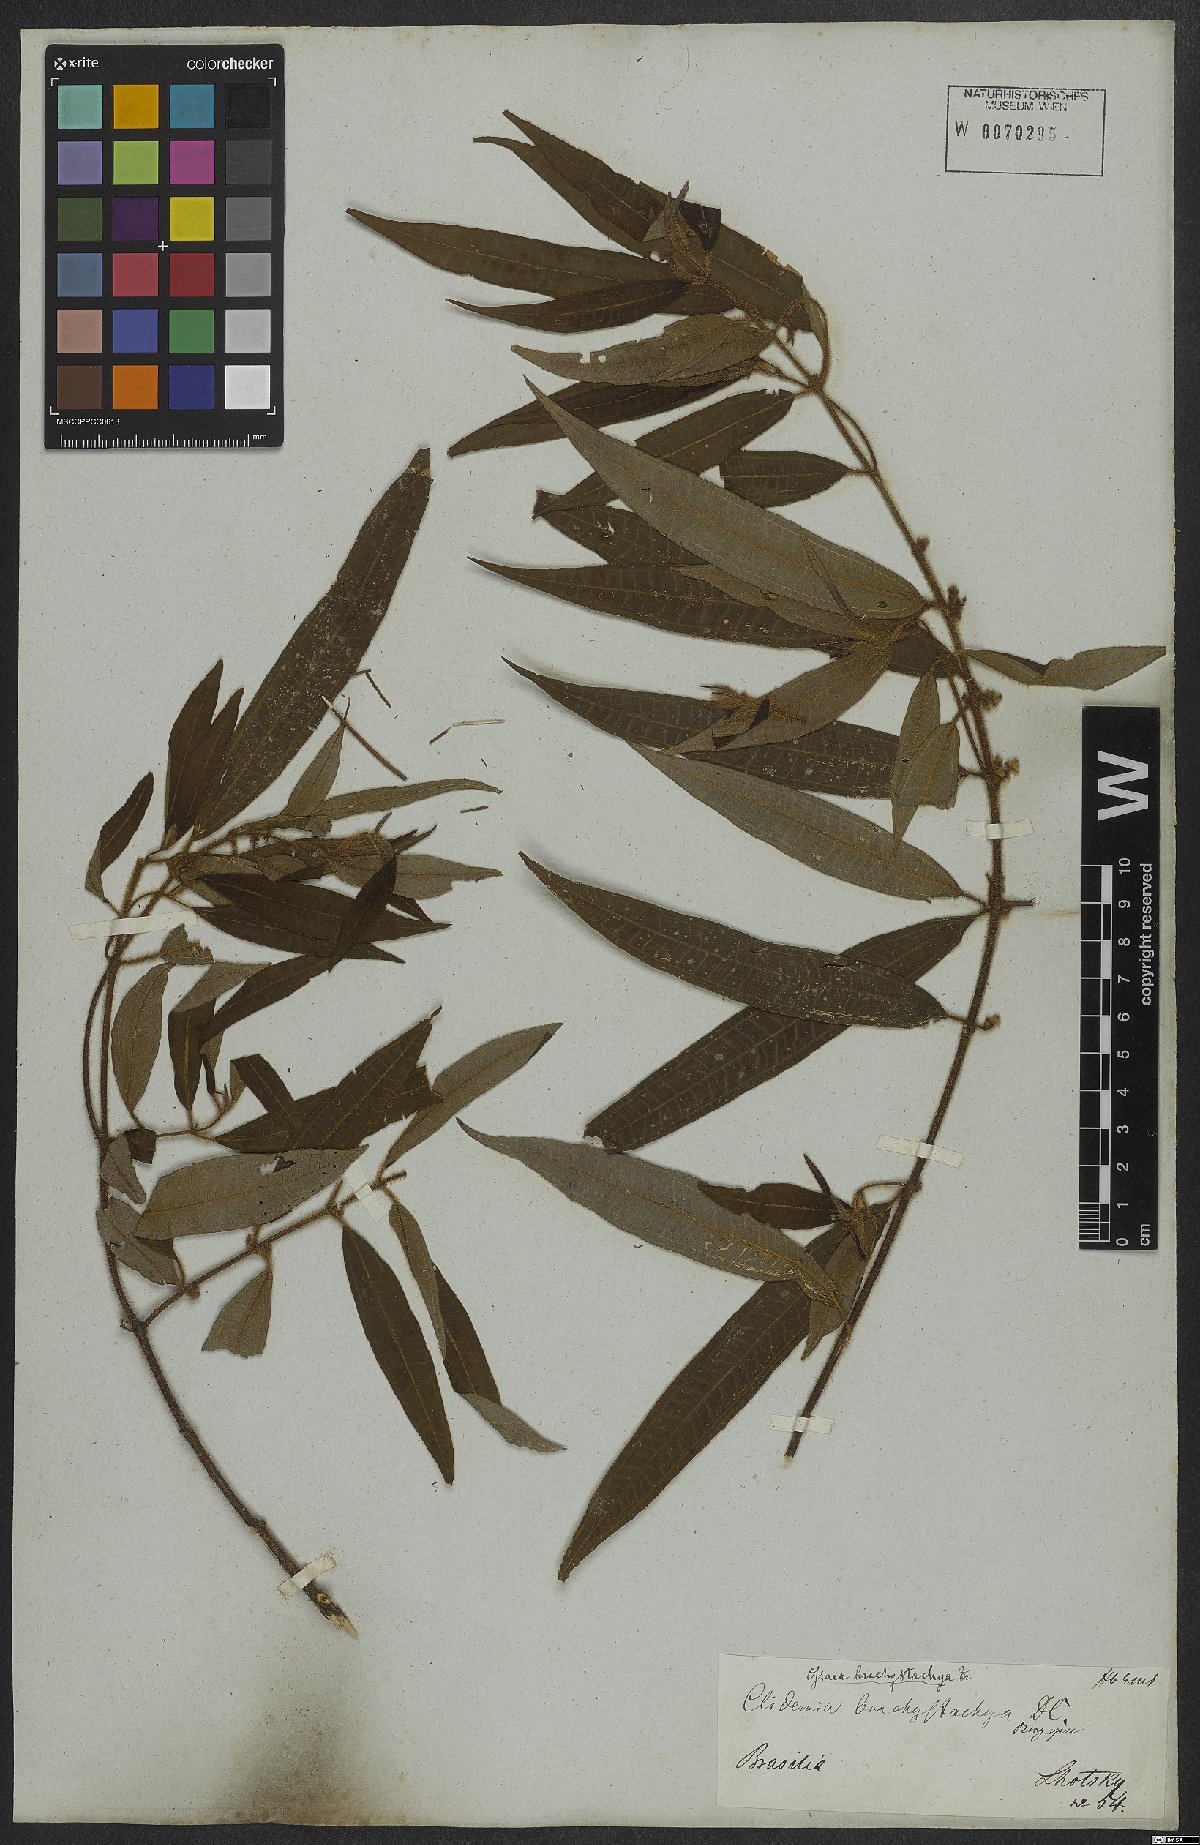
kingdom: Plantae
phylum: Tracheophyta
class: Magnoliopsida
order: Myrtales
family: Melastomataceae
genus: Miconia
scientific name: Miconia amygdaloides
